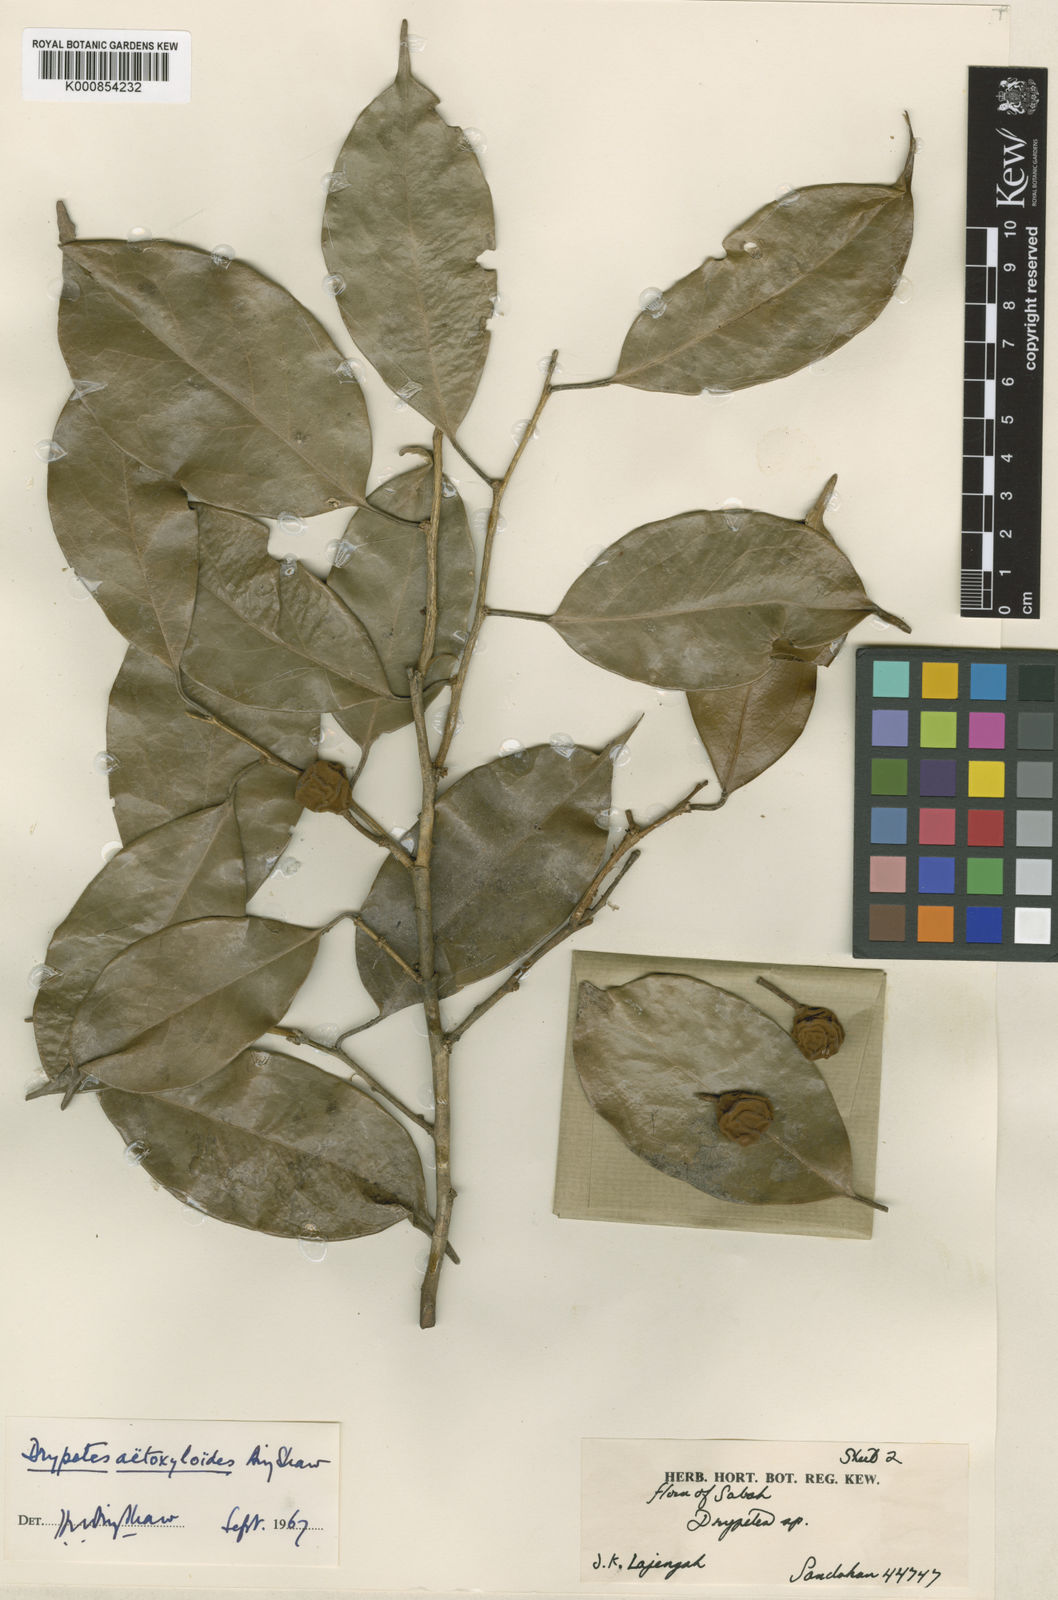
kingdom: Plantae
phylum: Tracheophyta
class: Magnoliopsida
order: Malpighiales
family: Putranjivaceae
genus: Drypetes
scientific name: Drypetes aetoxyloides
